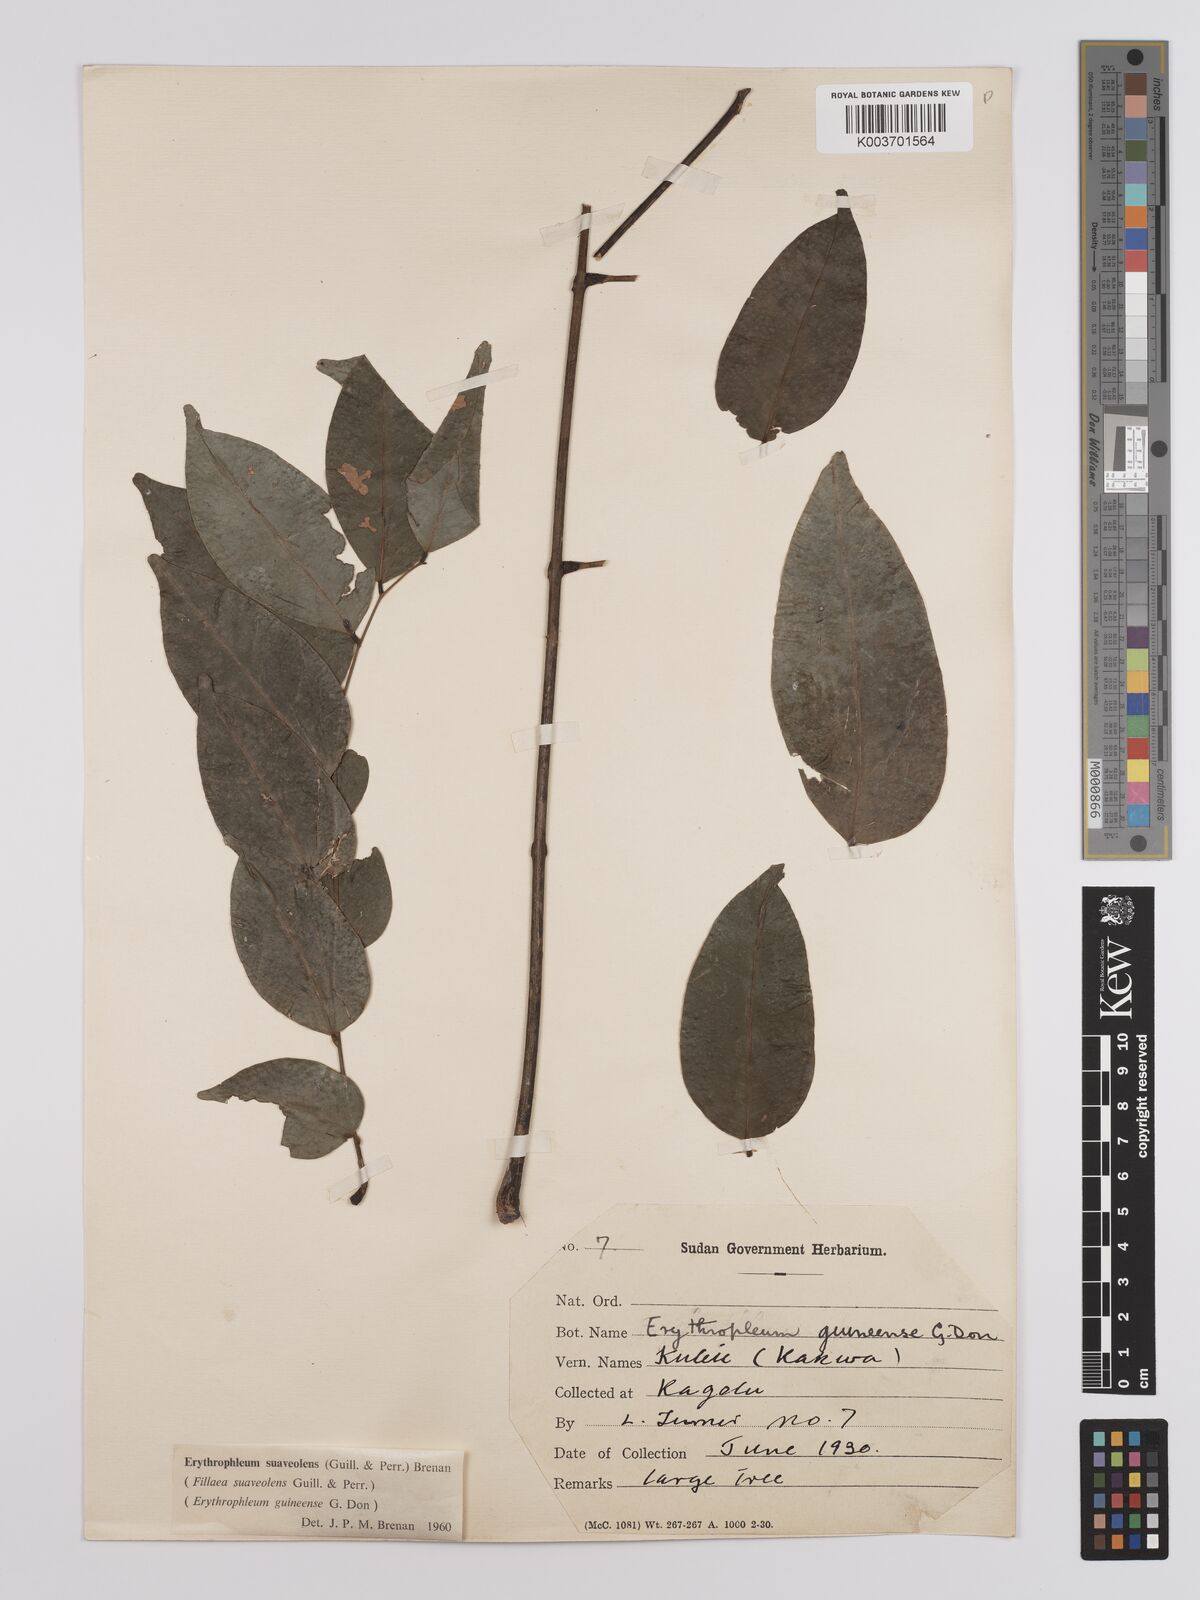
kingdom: Plantae
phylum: Tracheophyta
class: Magnoliopsida
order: Fabales
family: Fabaceae
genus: Erythrophleum
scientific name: Erythrophleum suaveolens
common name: Ordeal tree
